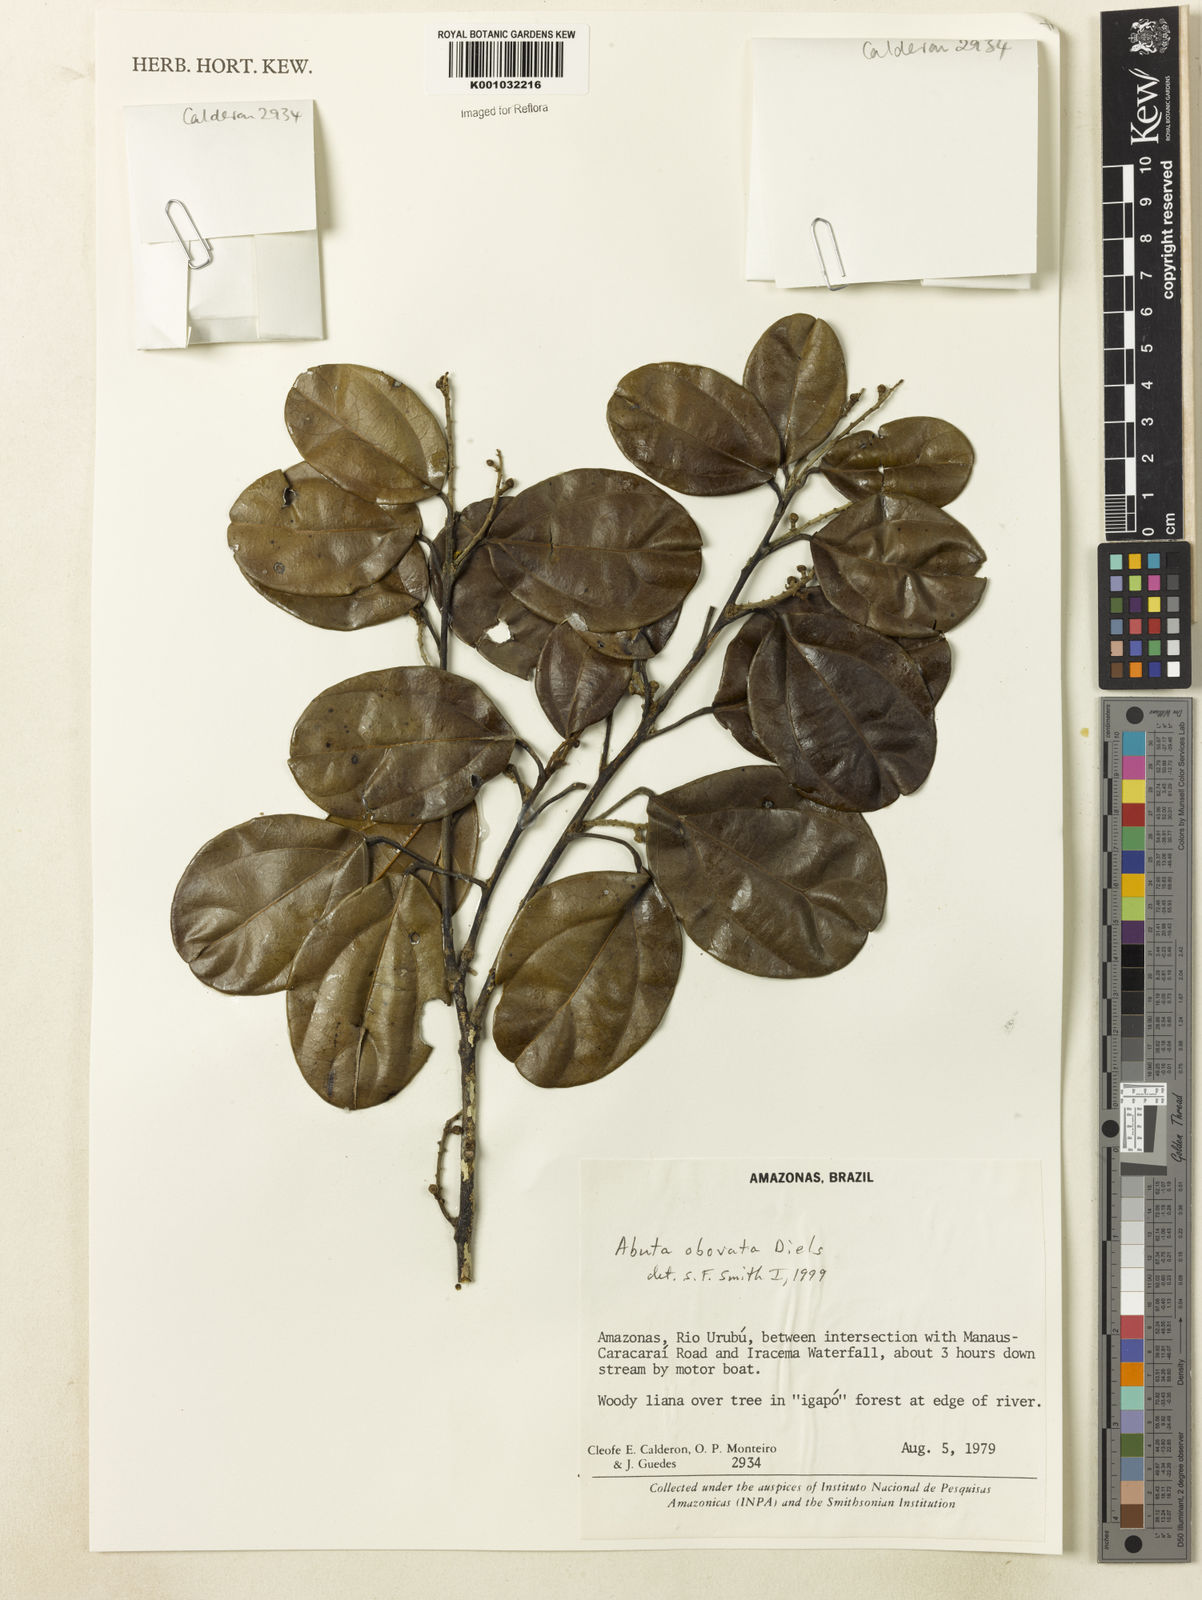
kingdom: Plantae
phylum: Tracheophyta
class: Magnoliopsida
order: Ranunculales
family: Menispermaceae
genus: Abuta
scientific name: Abuta obovata
